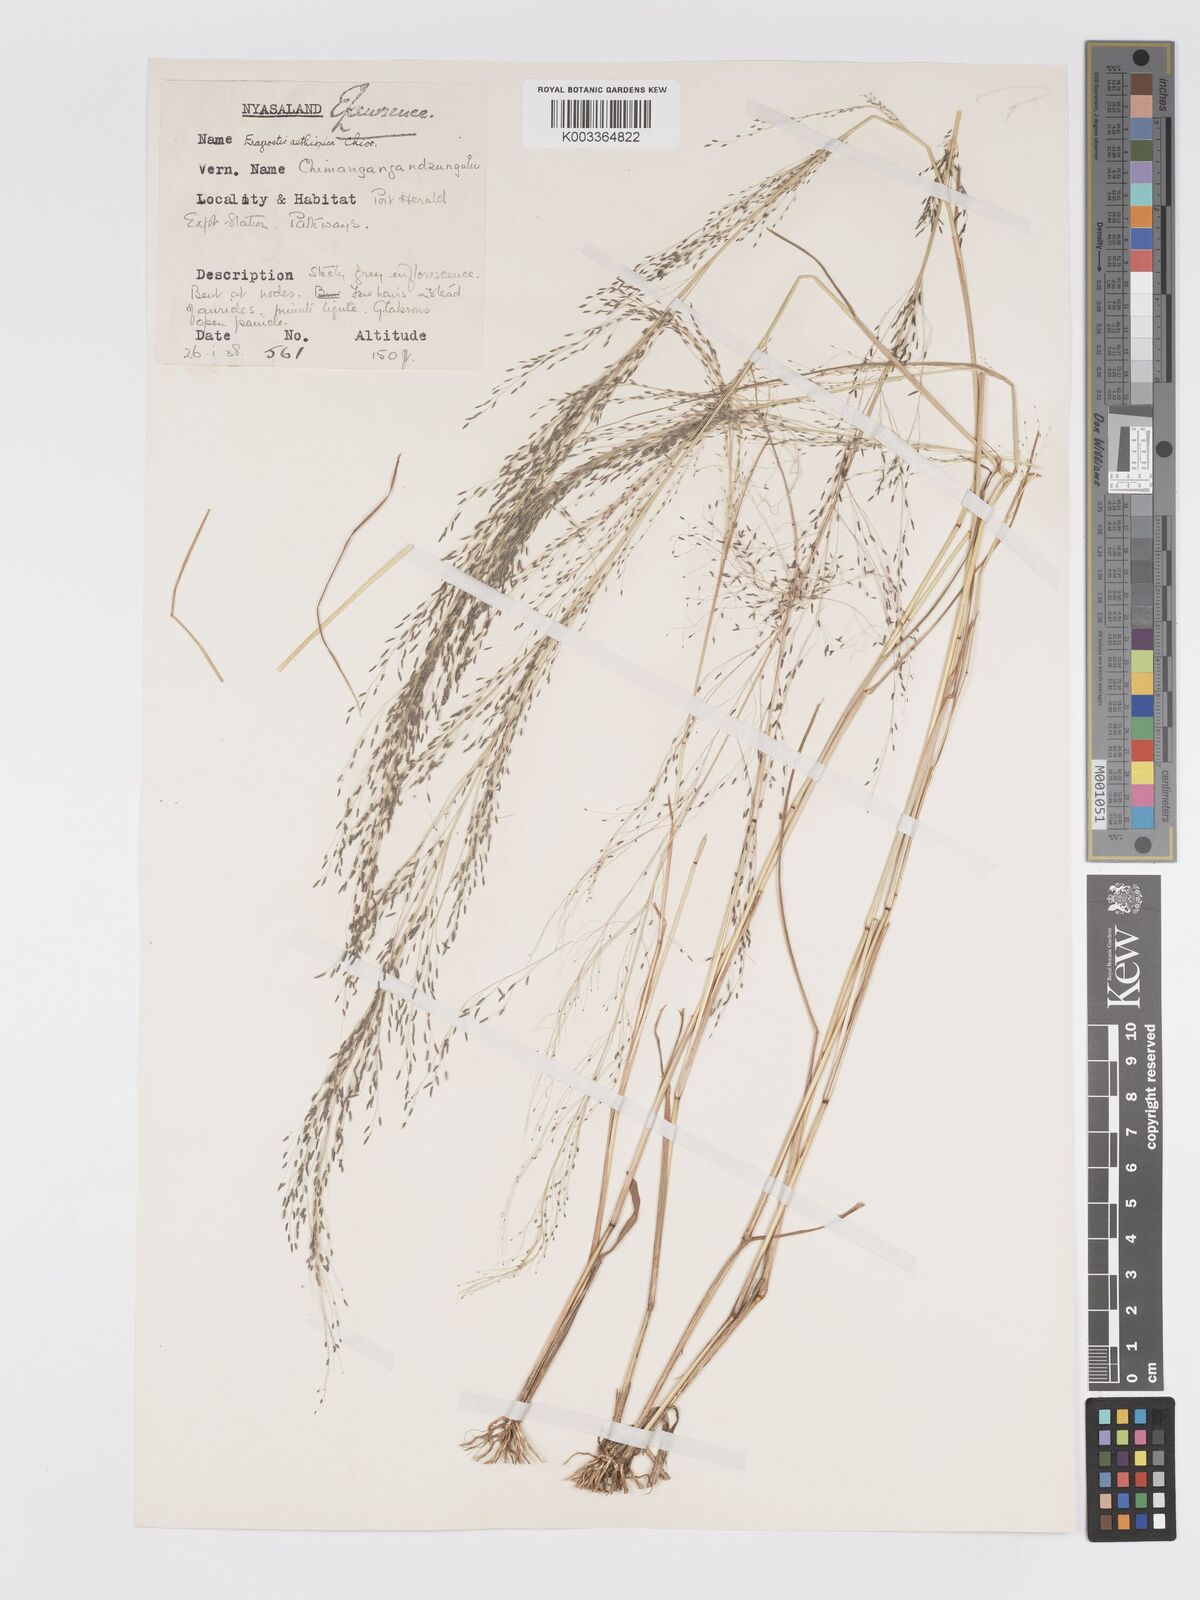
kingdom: Plantae
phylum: Tracheophyta
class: Liliopsida
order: Poales
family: Poaceae
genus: Eragrostis
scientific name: Eragrostis aethiopica
